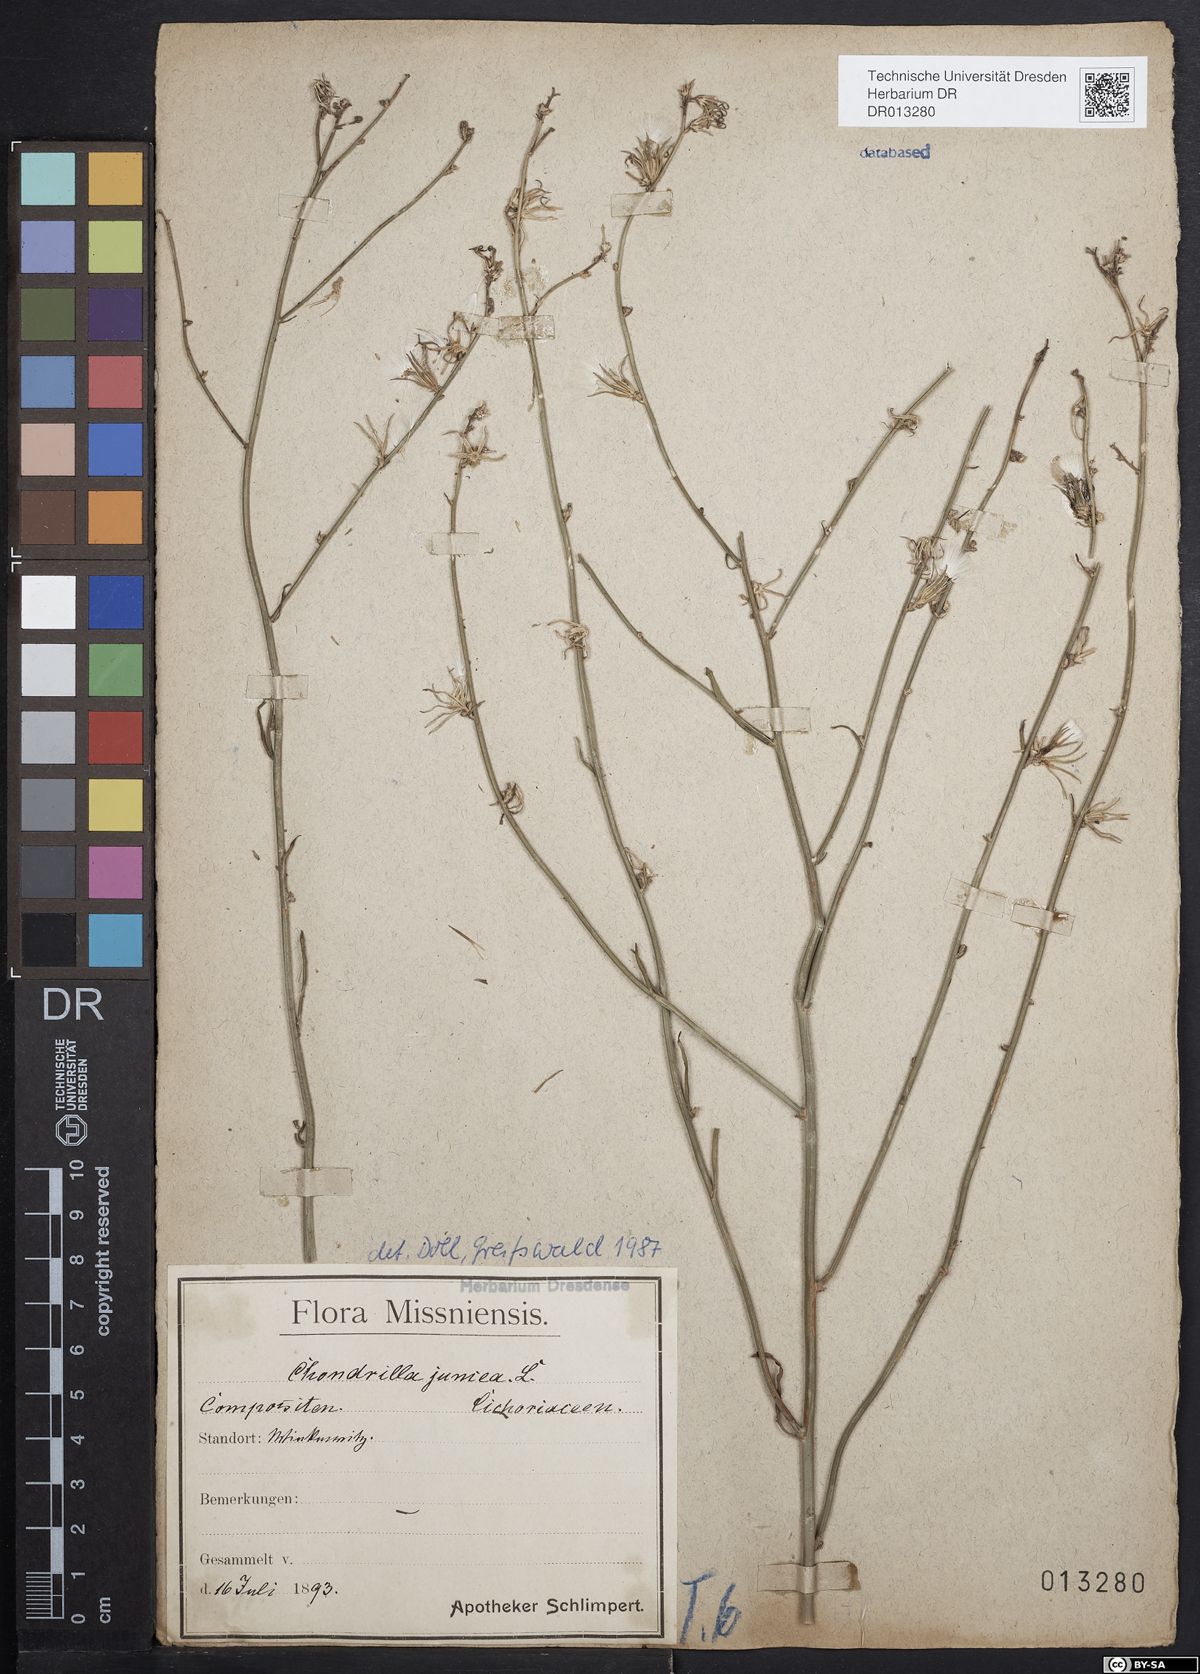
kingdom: Plantae
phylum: Tracheophyta
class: Magnoliopsida
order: Asterales
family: Asteraceae
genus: Chondrilla
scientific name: Chondrilla juncea
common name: Skeleton weed
